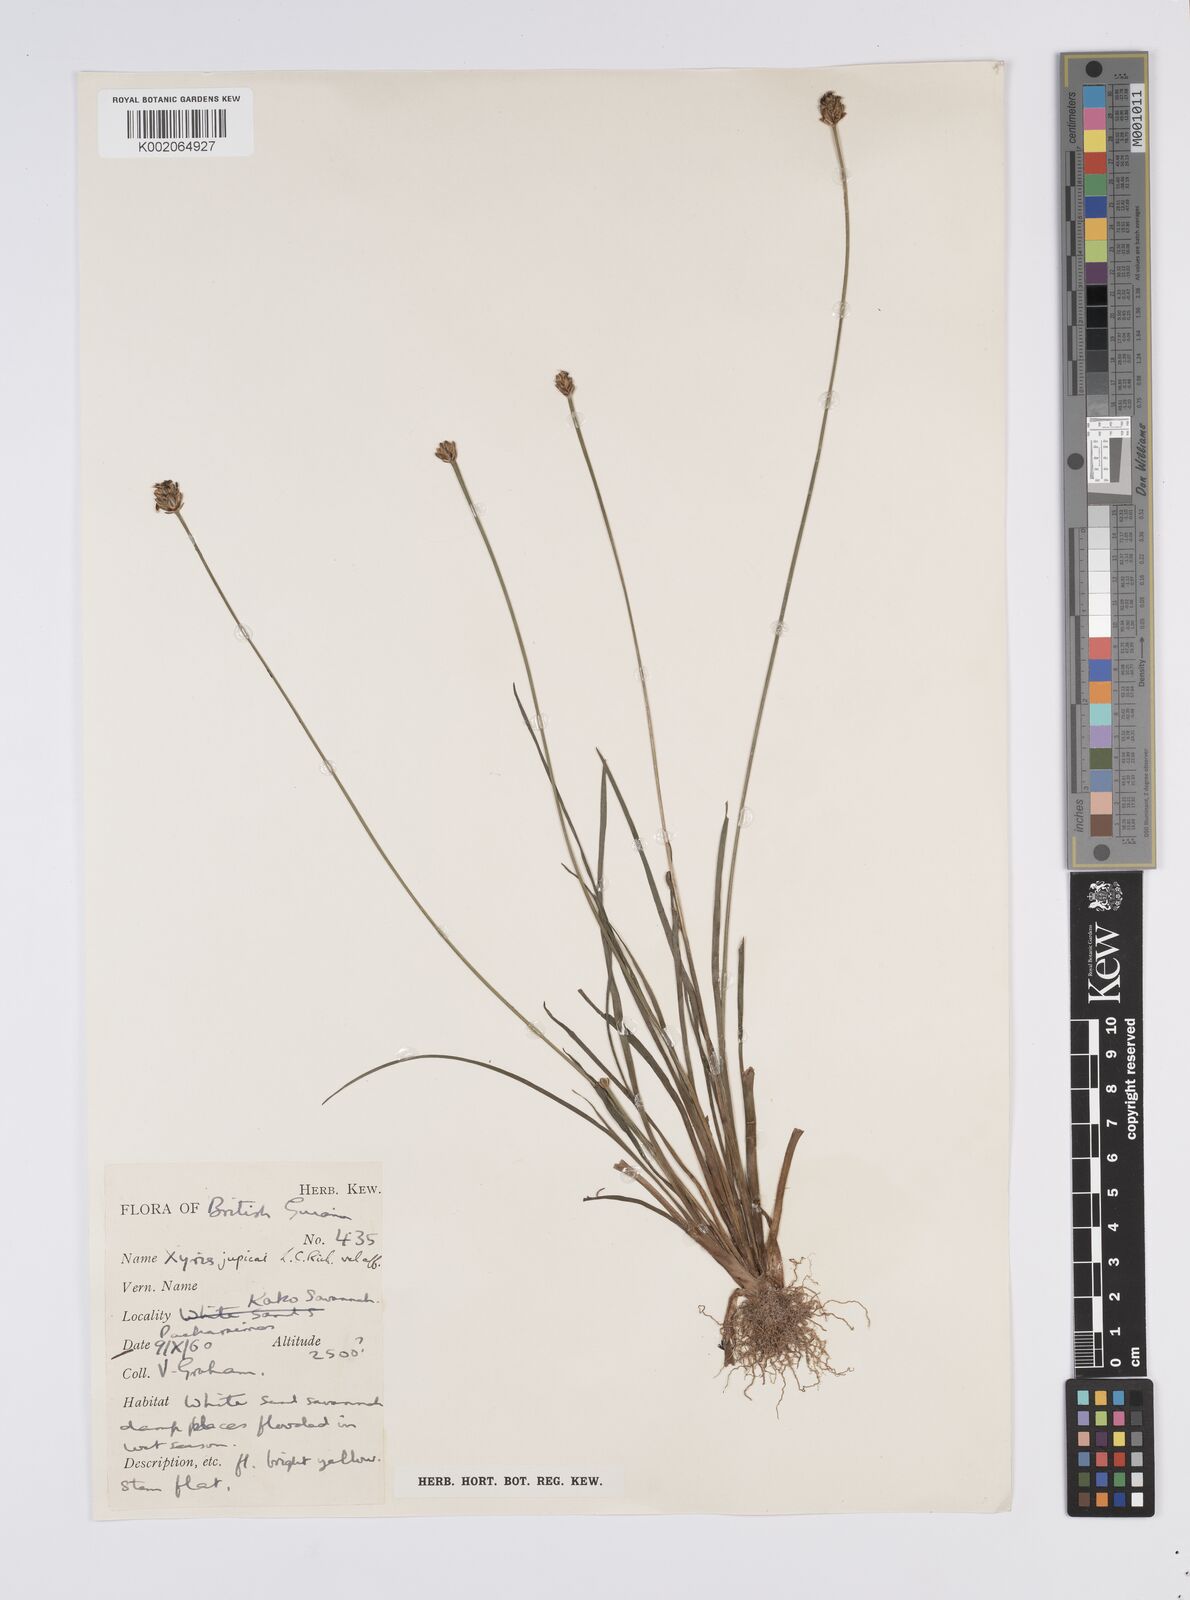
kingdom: Plantae
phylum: Tracheophyta
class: Liliopsida
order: Poales
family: Xyridaceae
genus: Xyris
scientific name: Xyris jupicai
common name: Richard's yelloweyed grass
